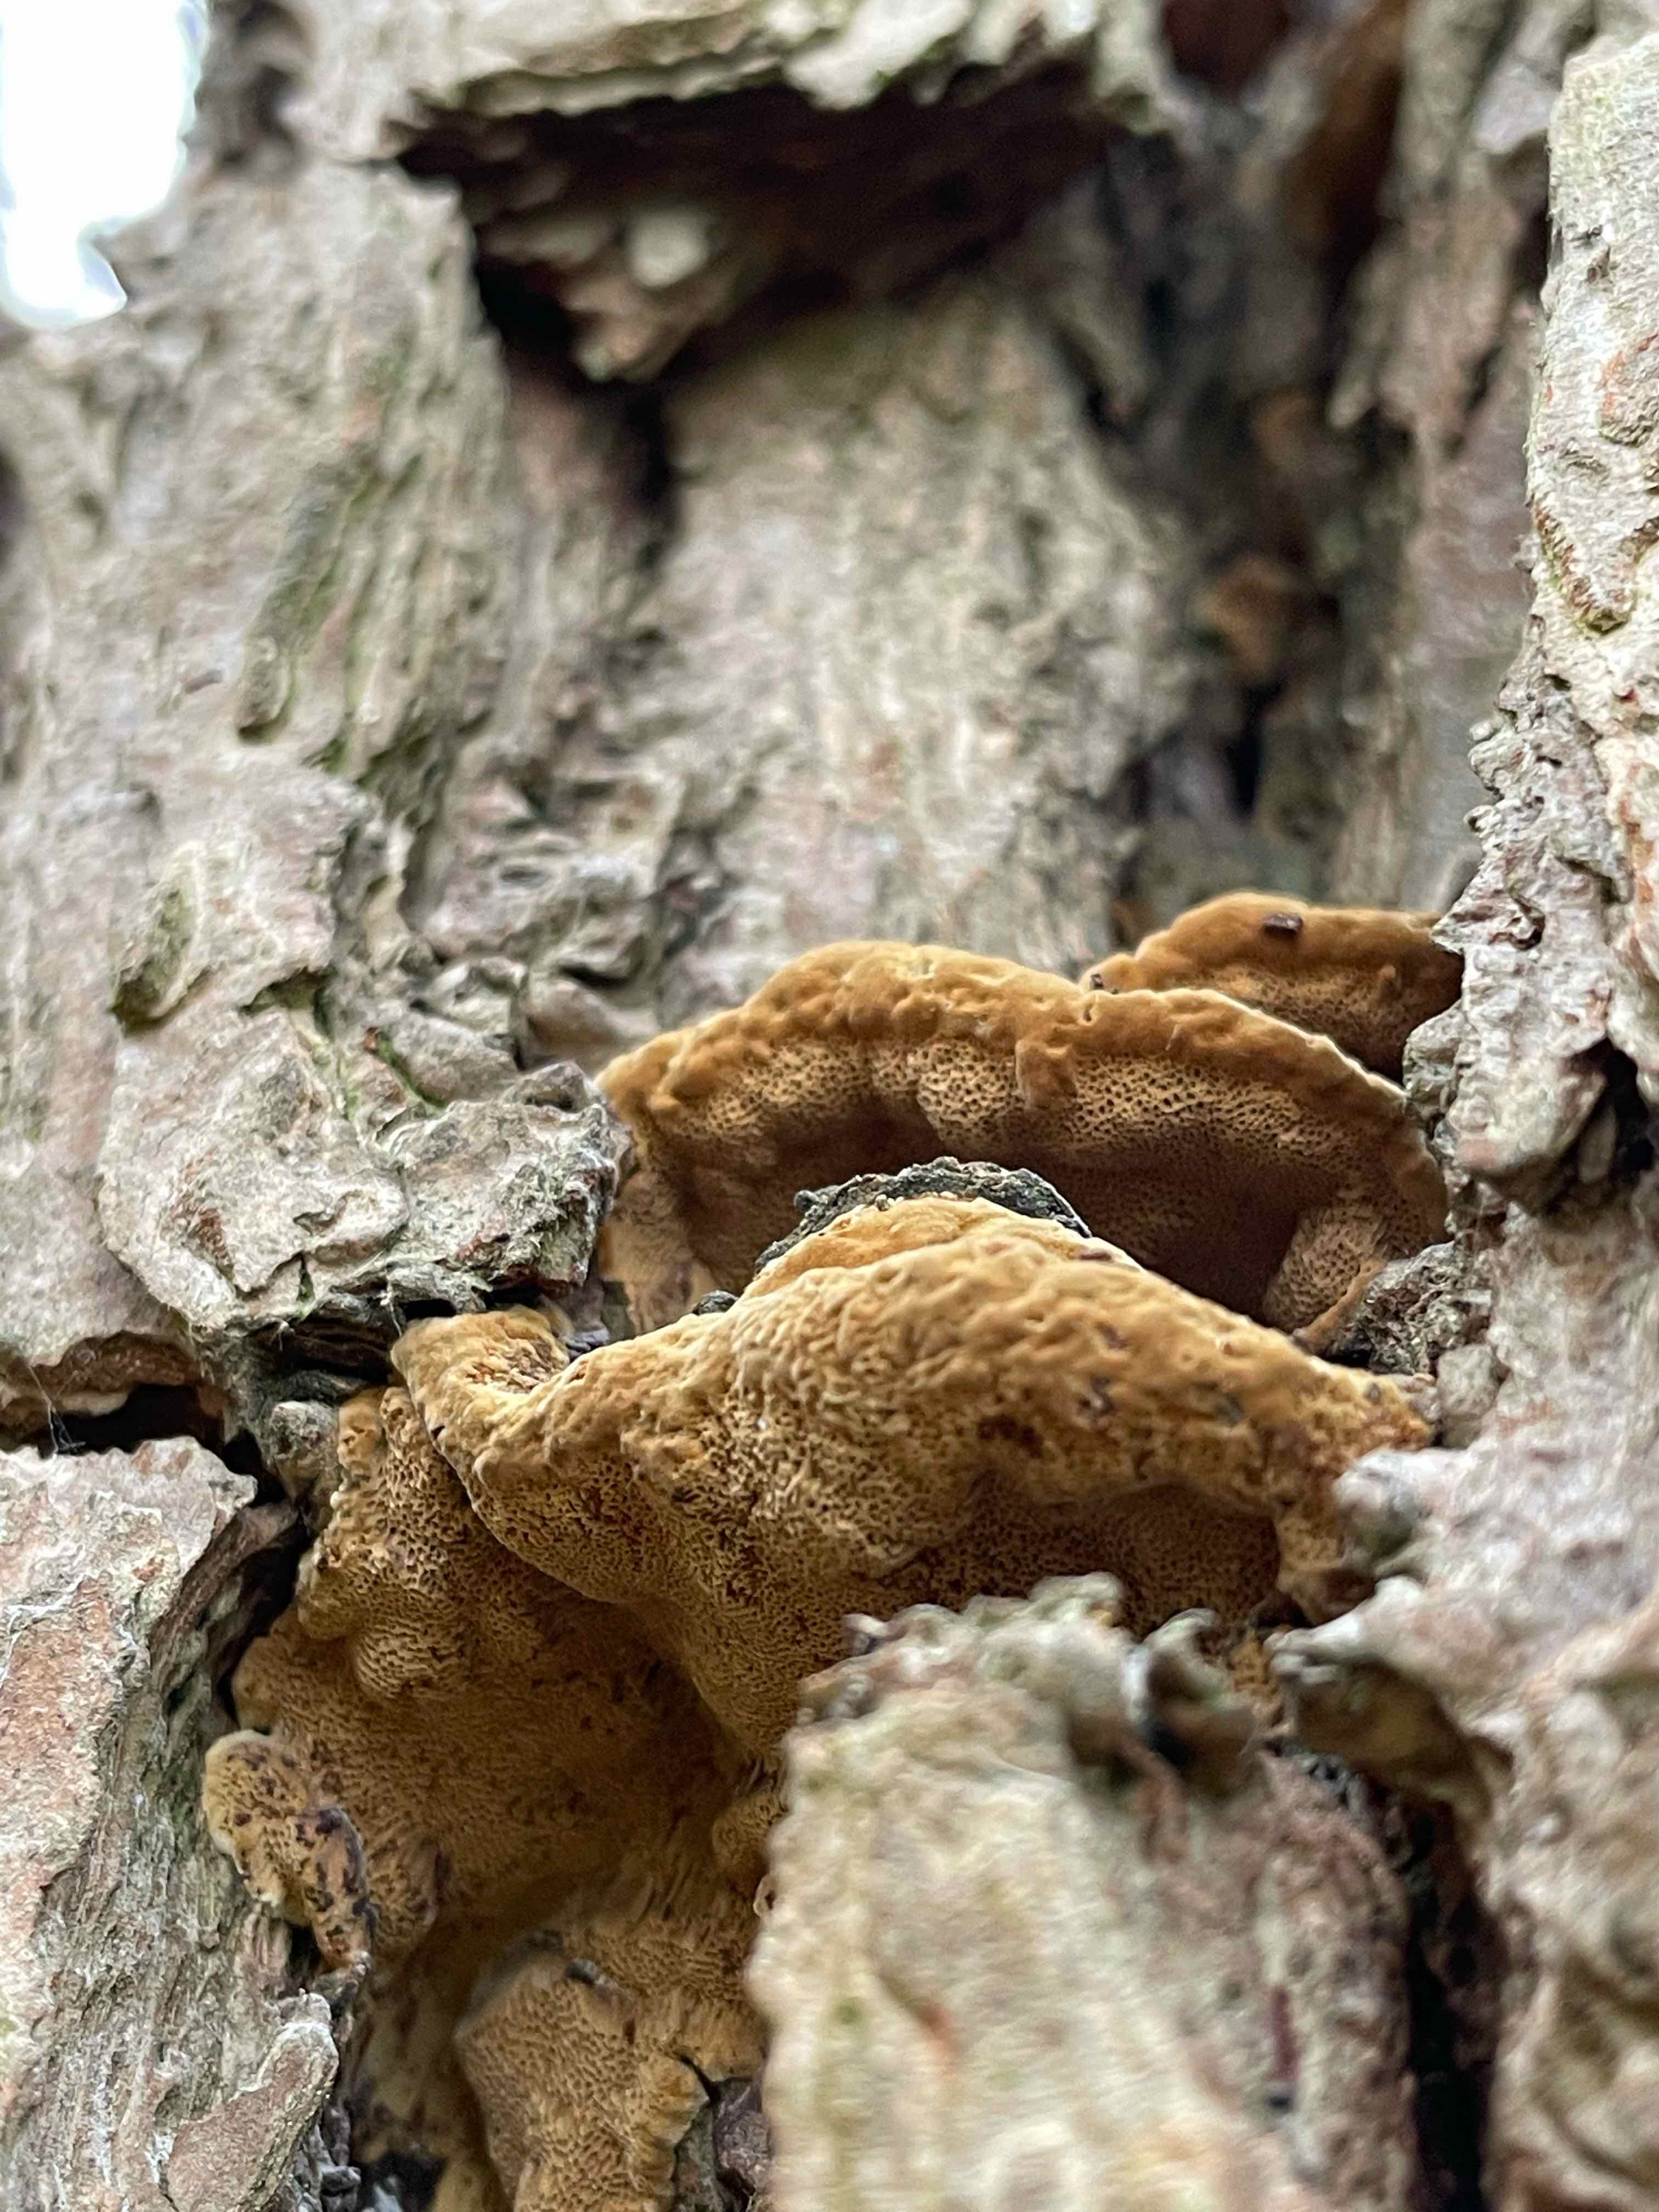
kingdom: Fungi
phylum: Basidiomycota
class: Agaricomycetes
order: Hymenochaetales
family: Hymenochaetaceae
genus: Phellinopsis
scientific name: Phellinopsis conchata
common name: pile-ildporesvamp
